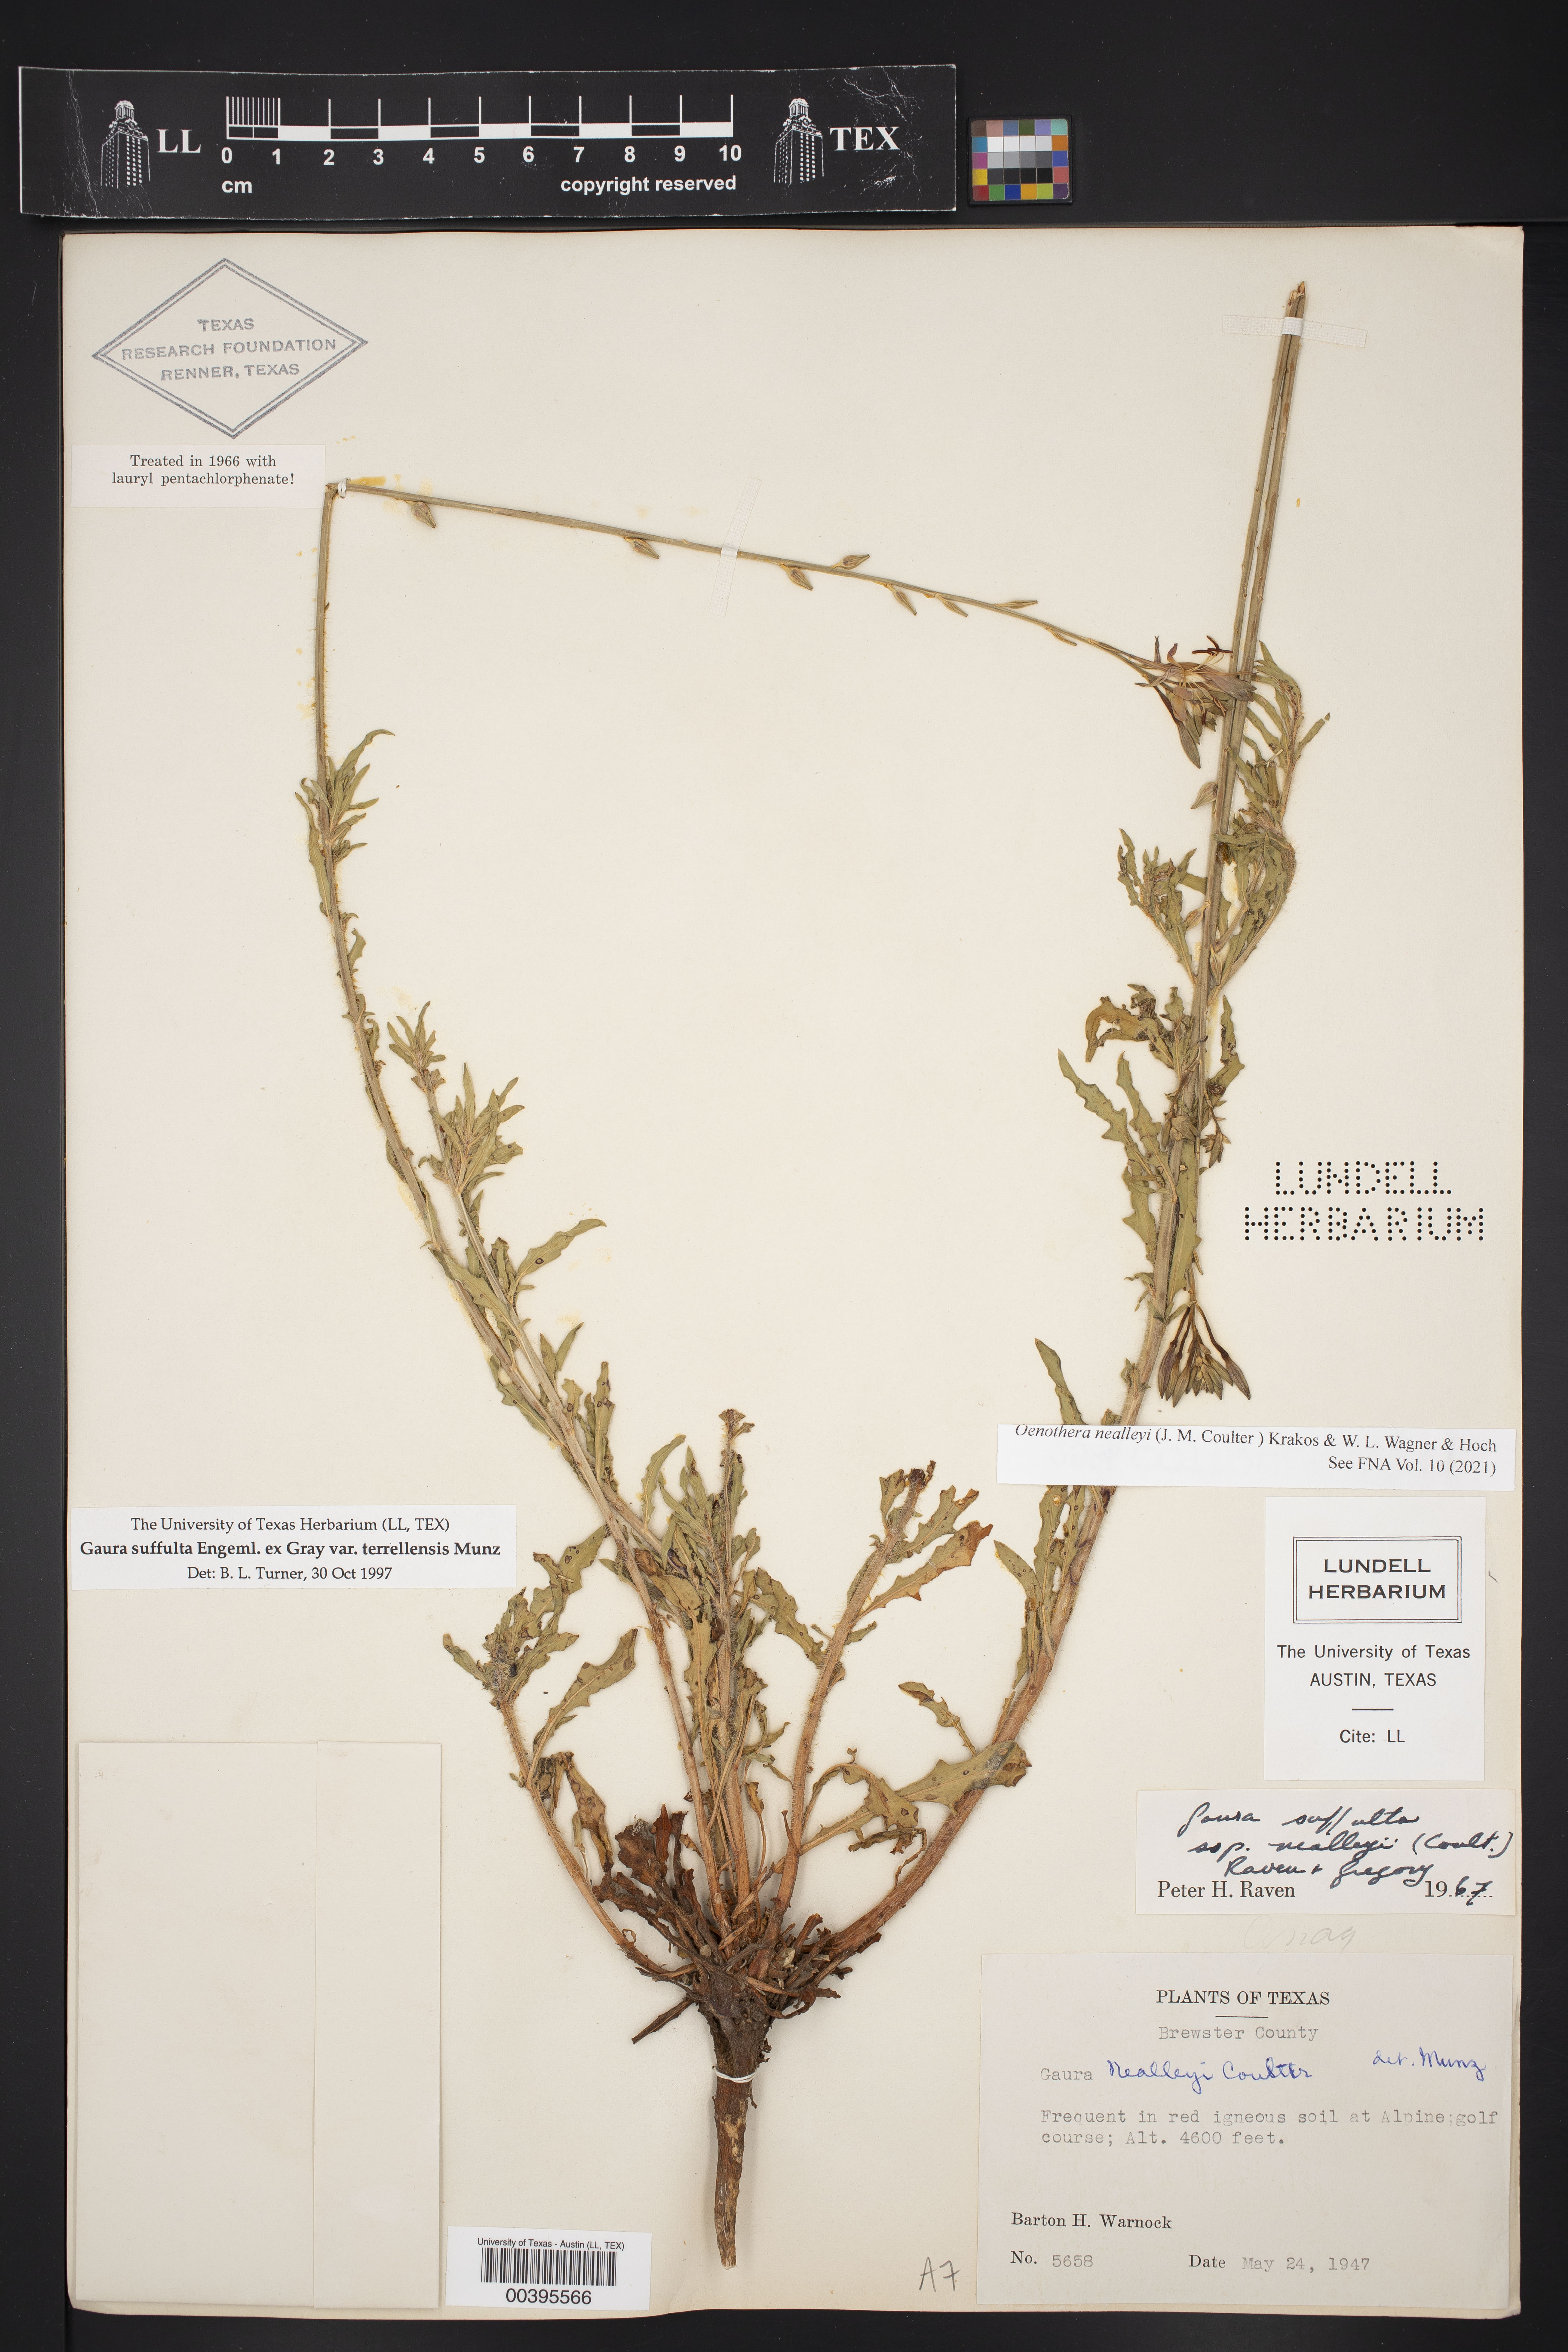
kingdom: Plantae
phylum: Tracheophyta
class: Magnoliopsida
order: Myrtales
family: Onagraceae
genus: Oenothera
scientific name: Oenothera suffulta
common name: Kisses
